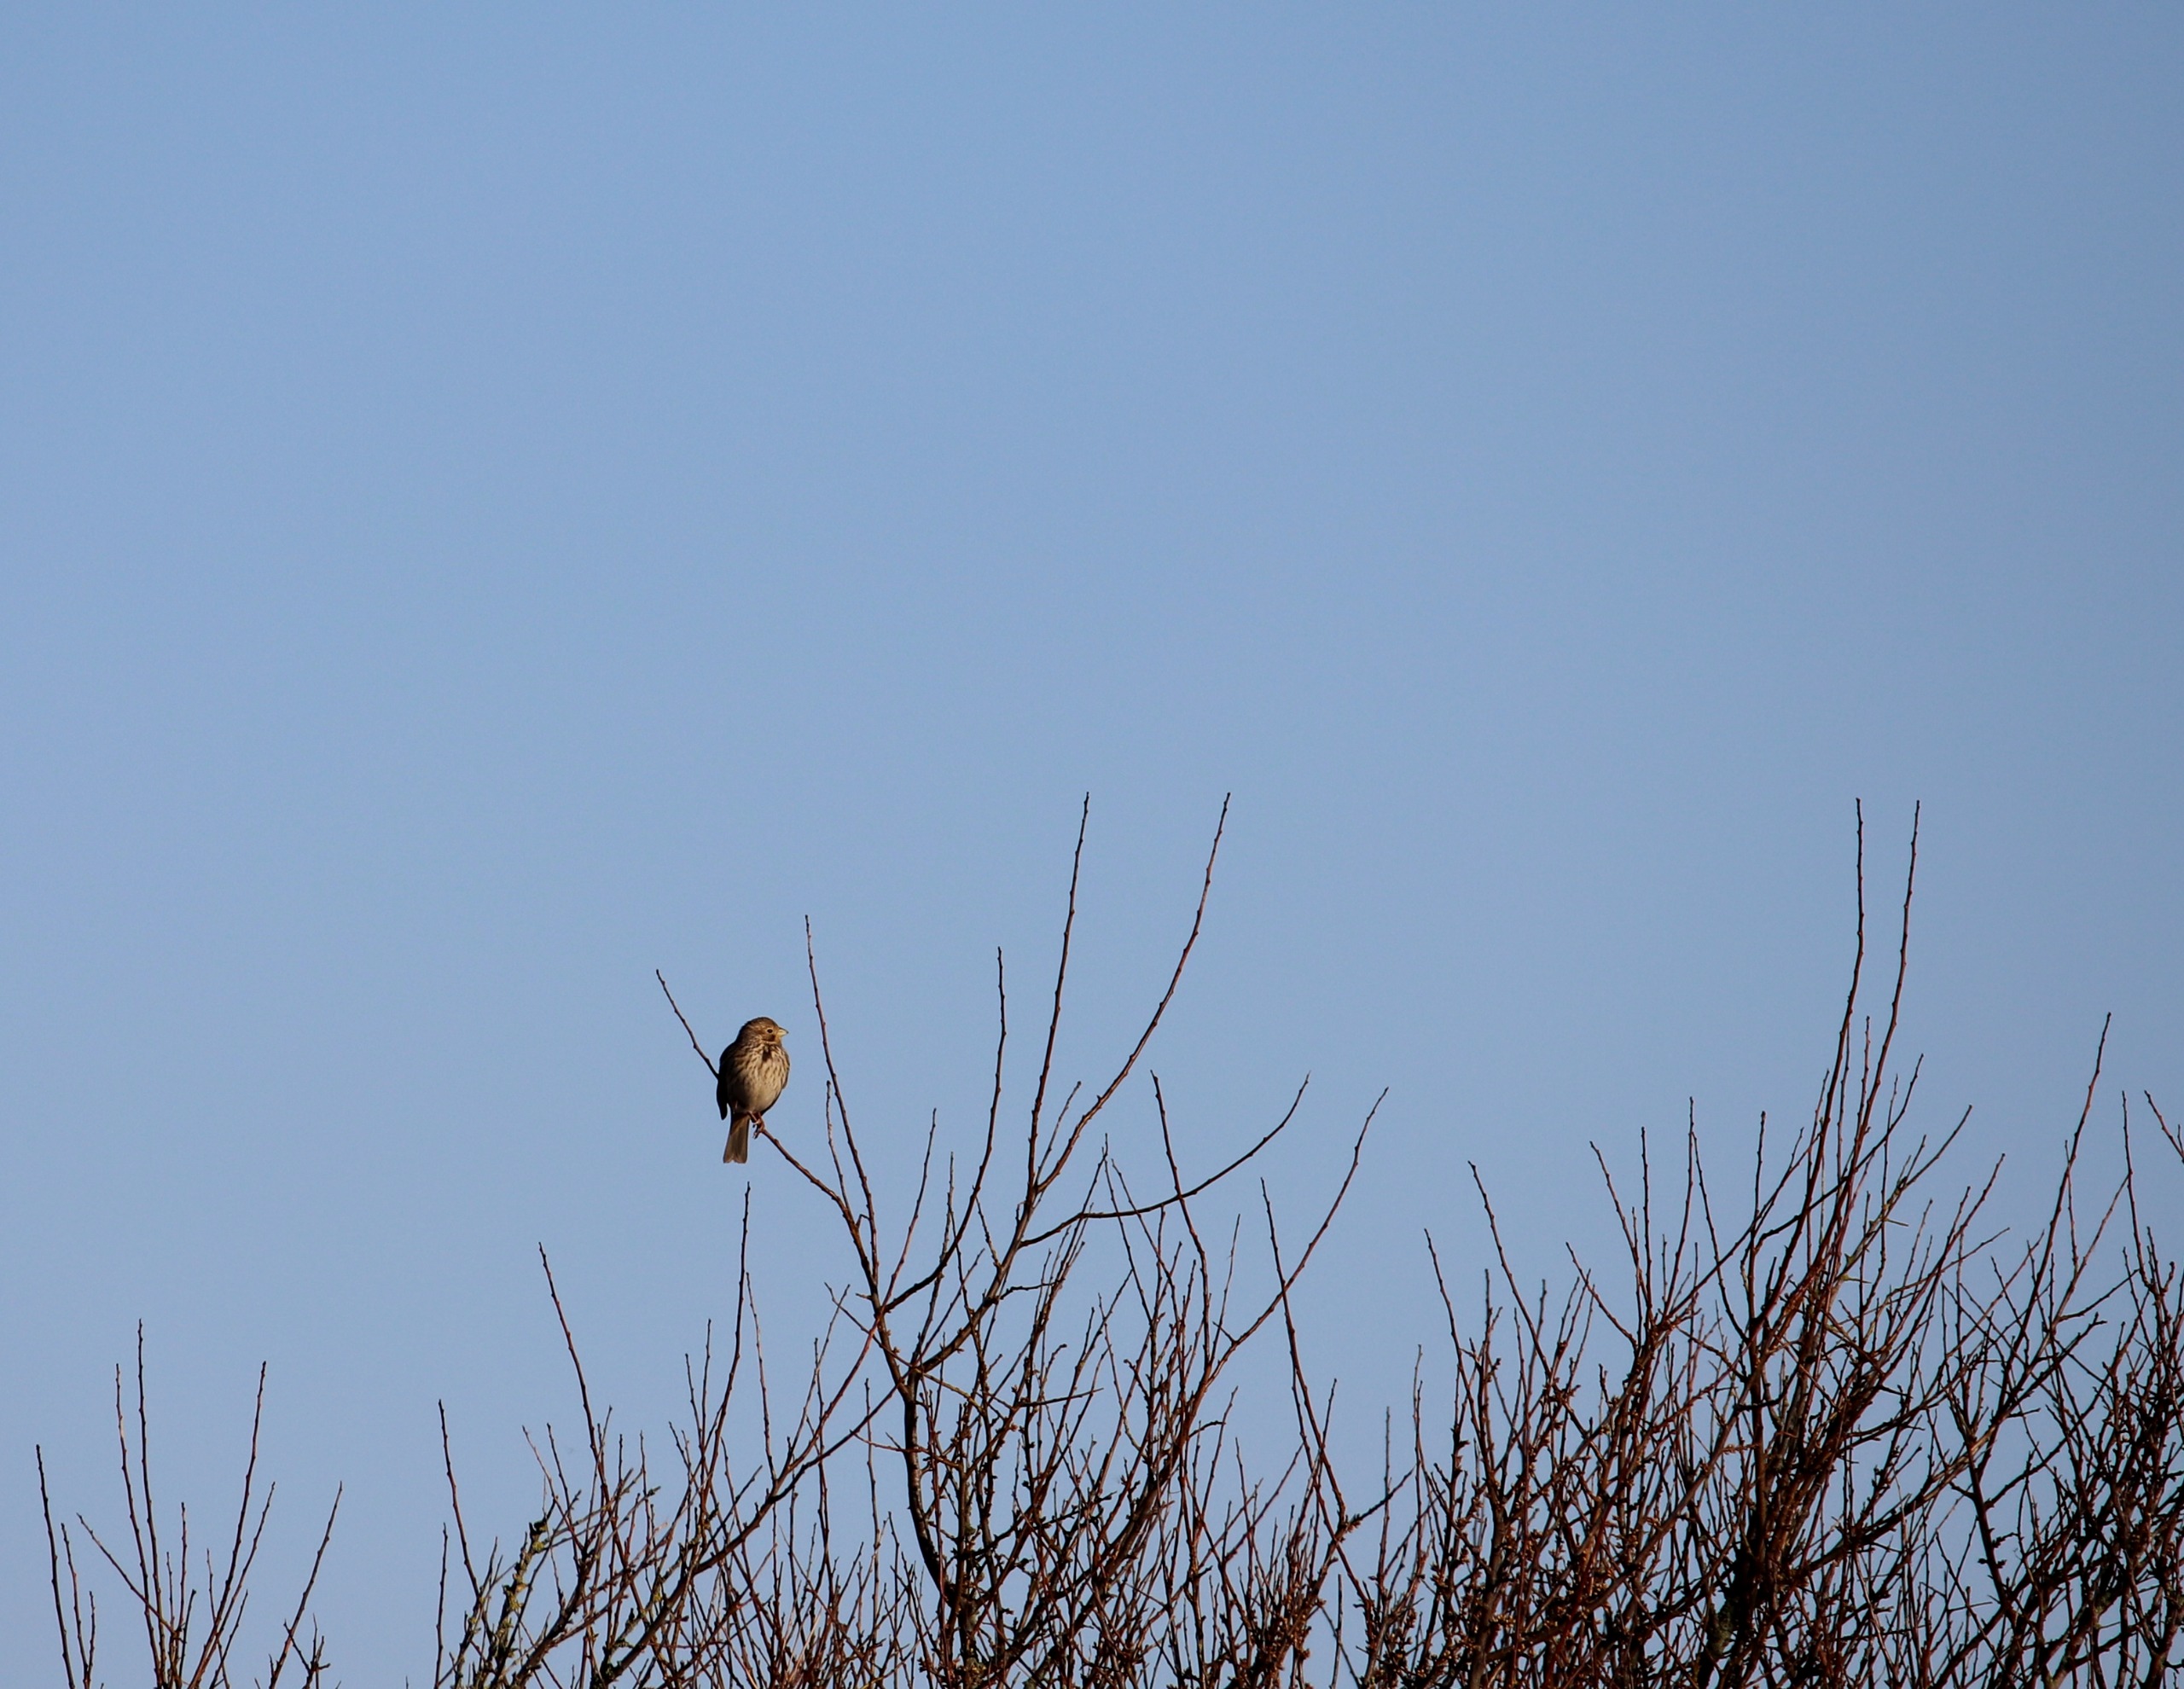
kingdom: Animalia
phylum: Chordata
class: Aves
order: Passeriformes
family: Emberizidae
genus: Emberiza
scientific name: Emberiza calandra
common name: Bomlærke
